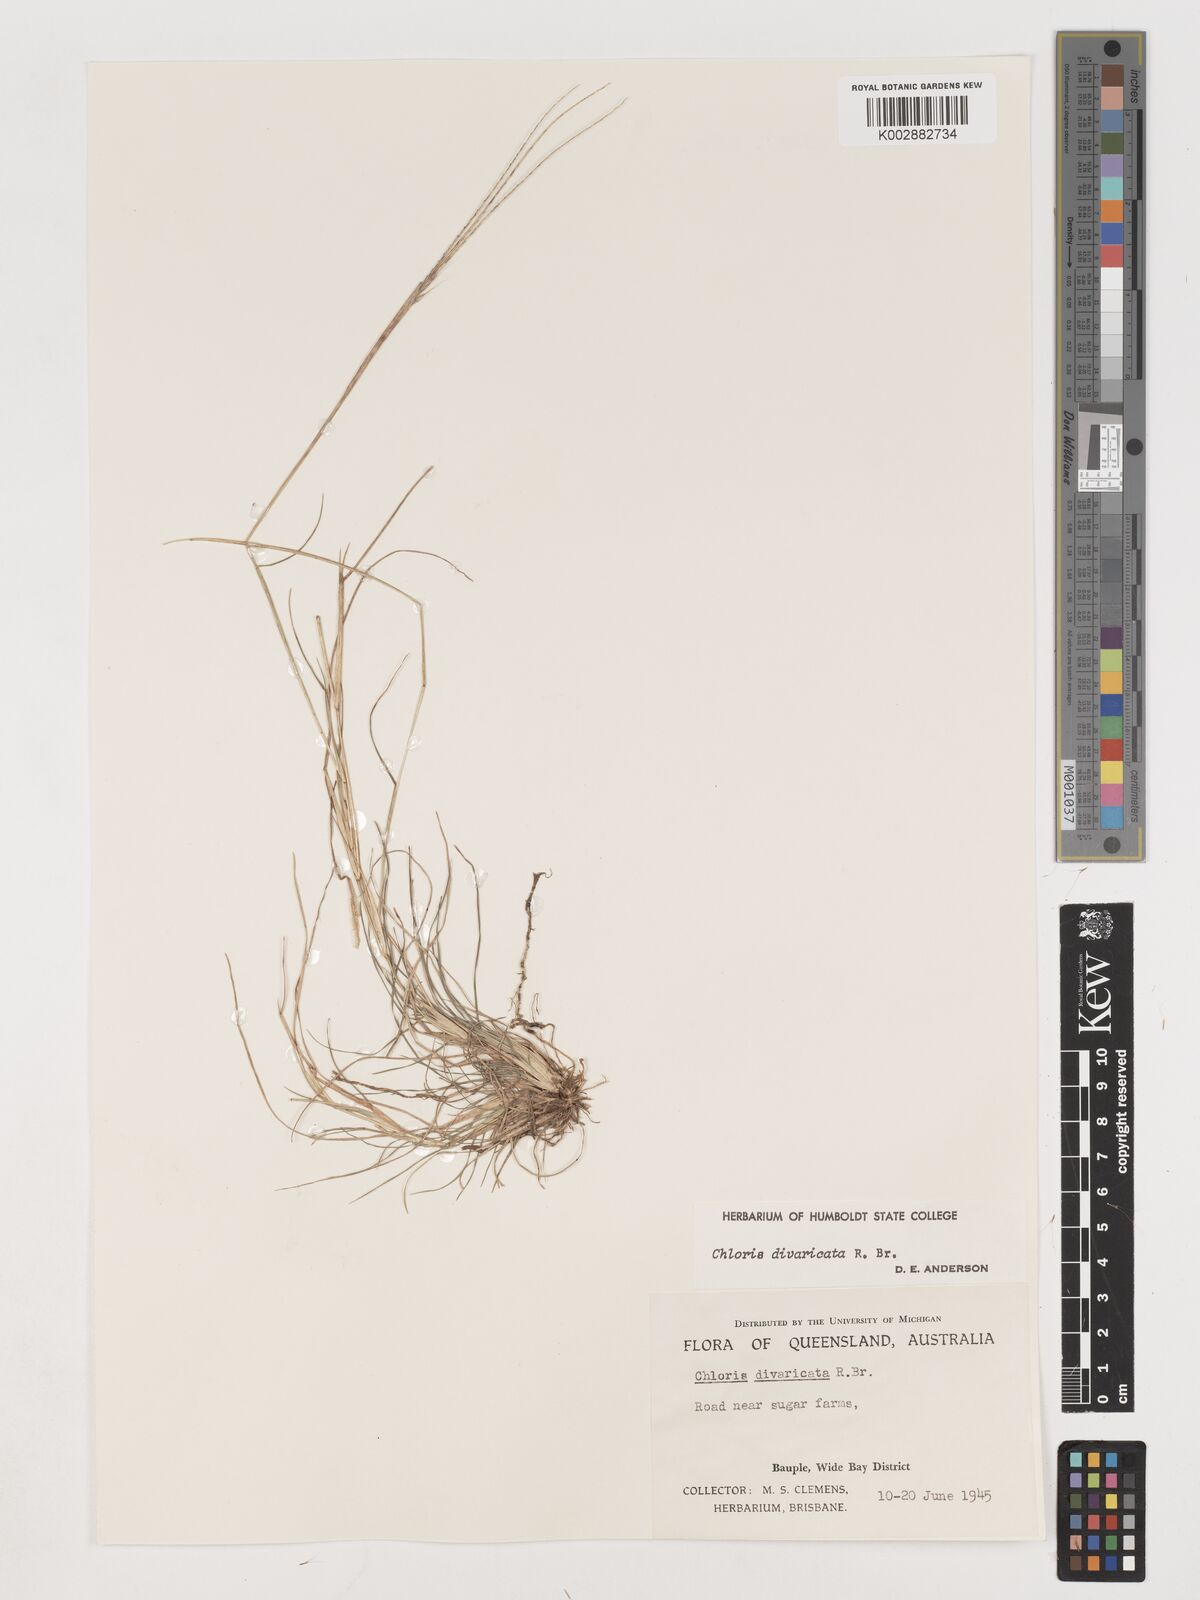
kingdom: Plantae
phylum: Tracheophyta
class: Liliopsida
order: Poales
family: Poaceae
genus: Chloris
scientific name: Chloris divaricata
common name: Spreading windmill grass
